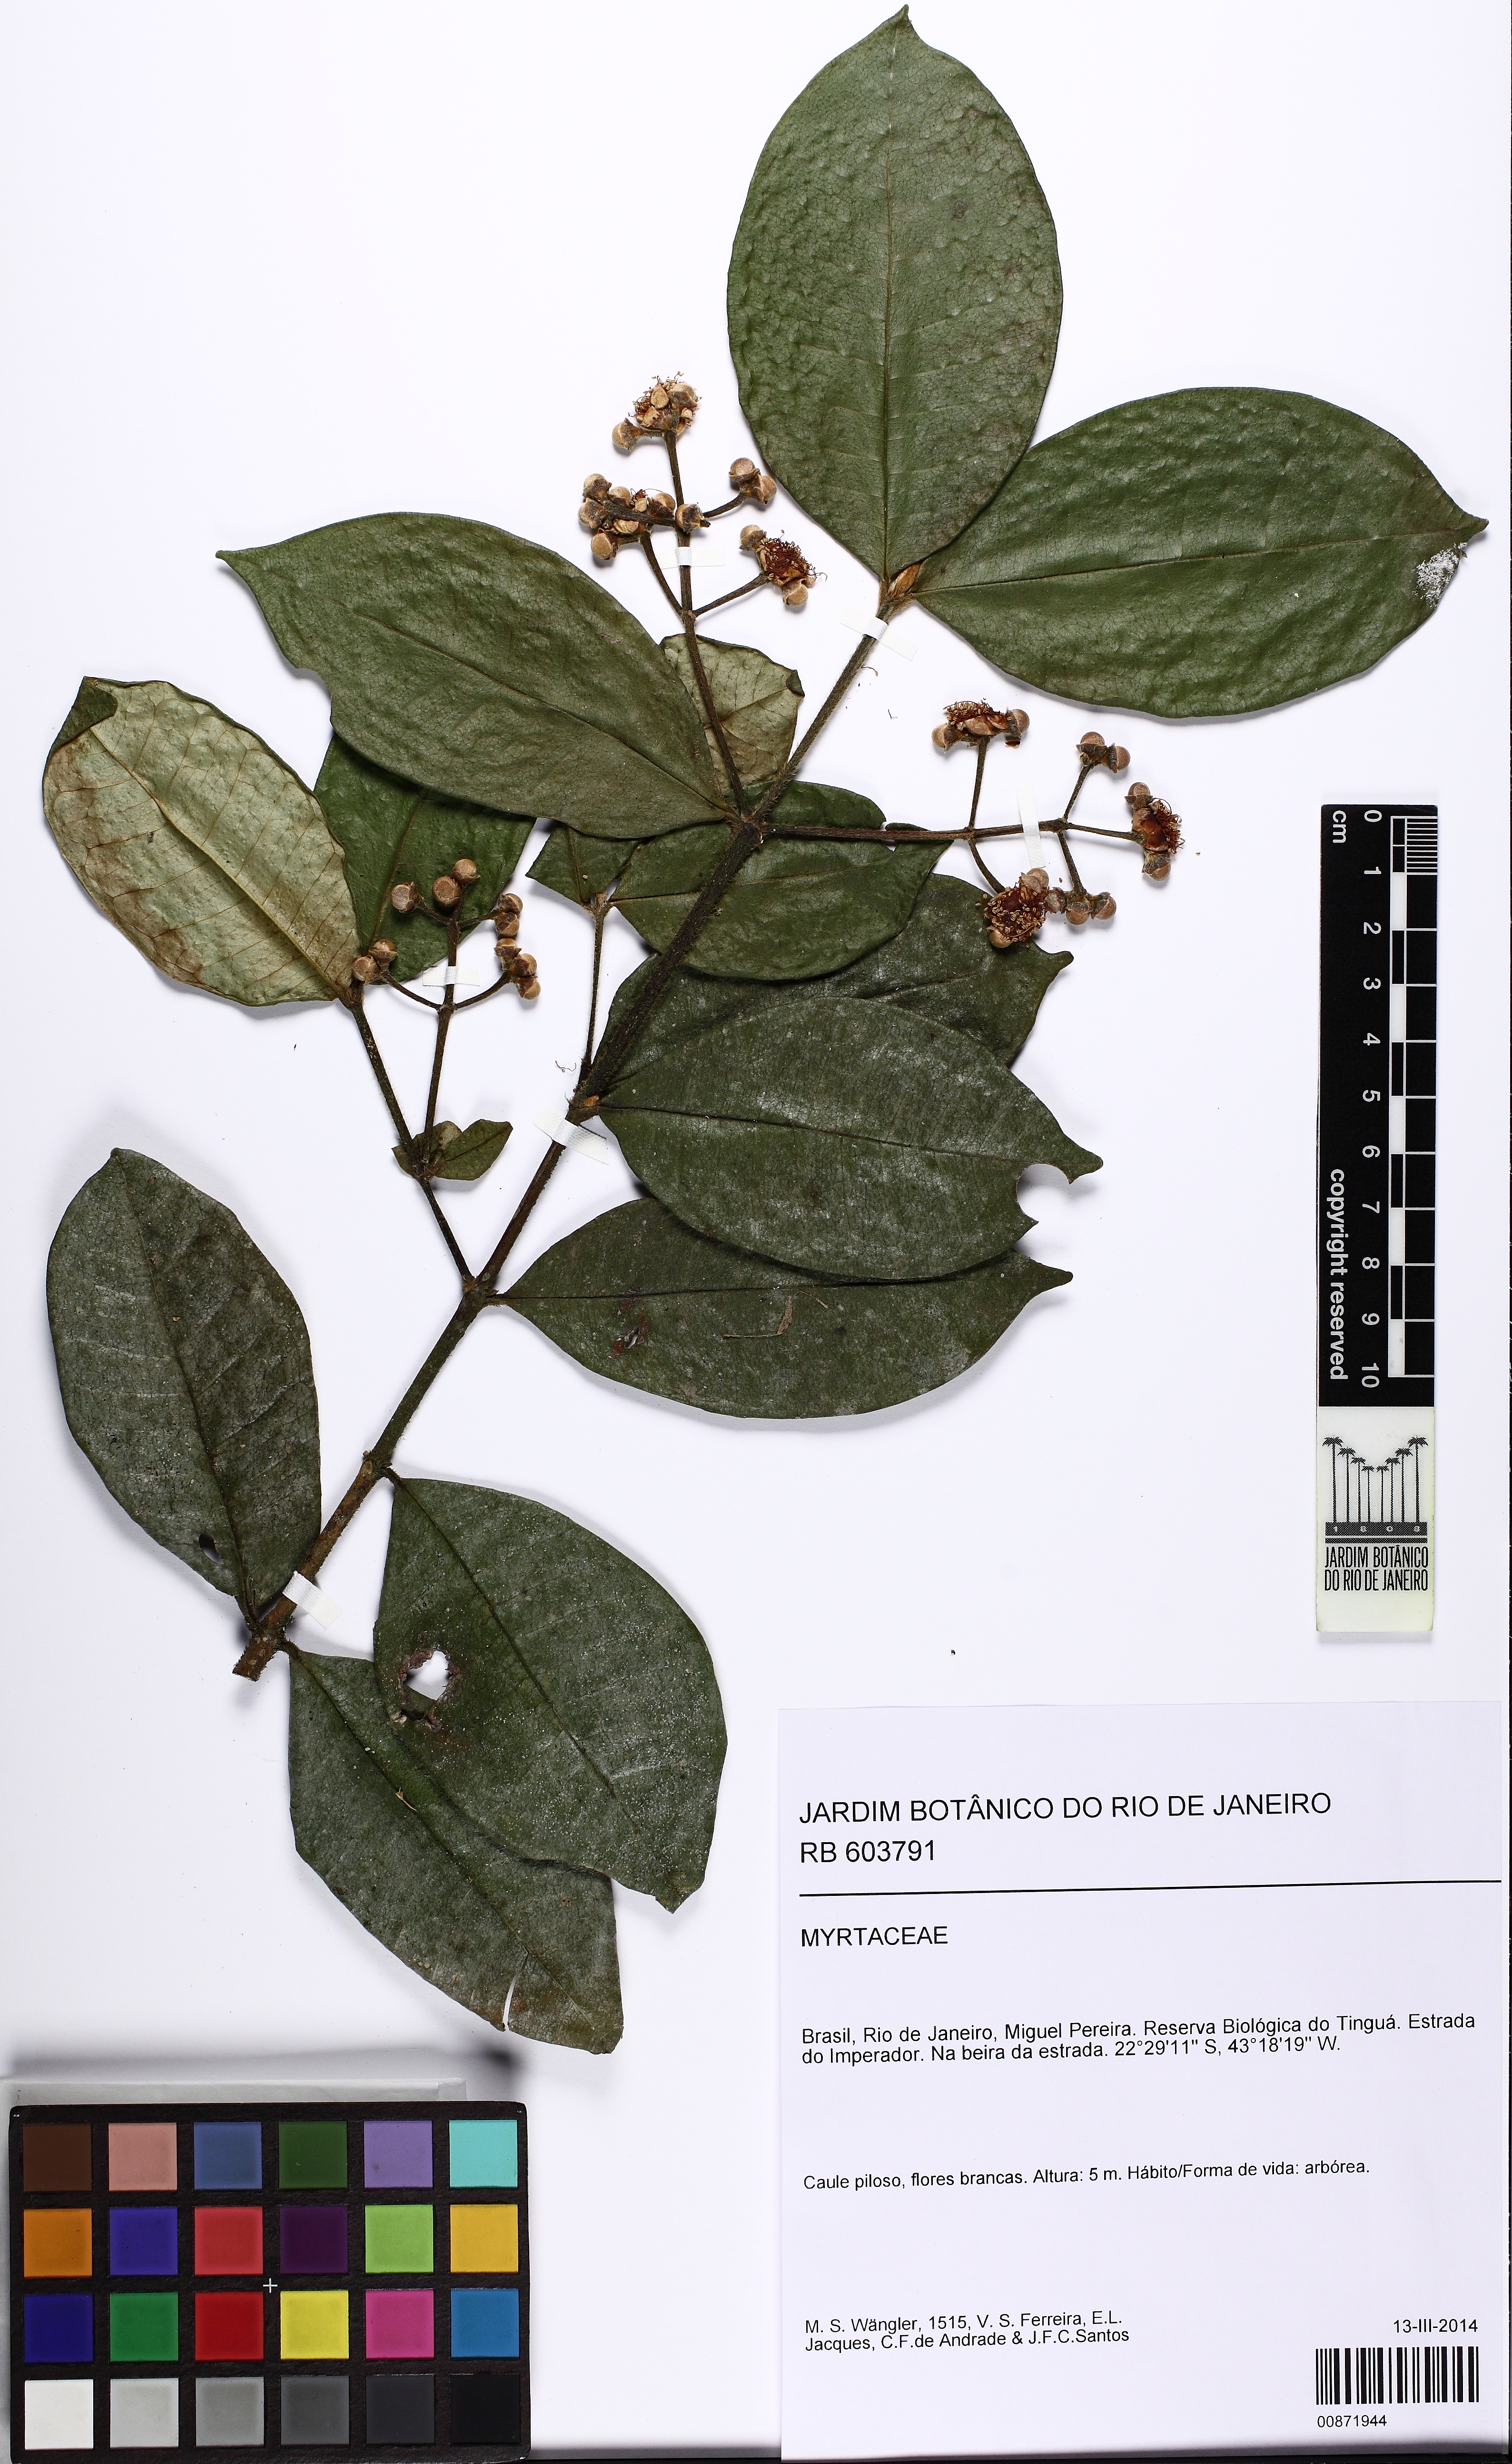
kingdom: Plantae
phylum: Tracheophyta
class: Magnoliopsida
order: Myrtales
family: Myrtaceae
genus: Myrcia
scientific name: Myrcia anacardiifolia
